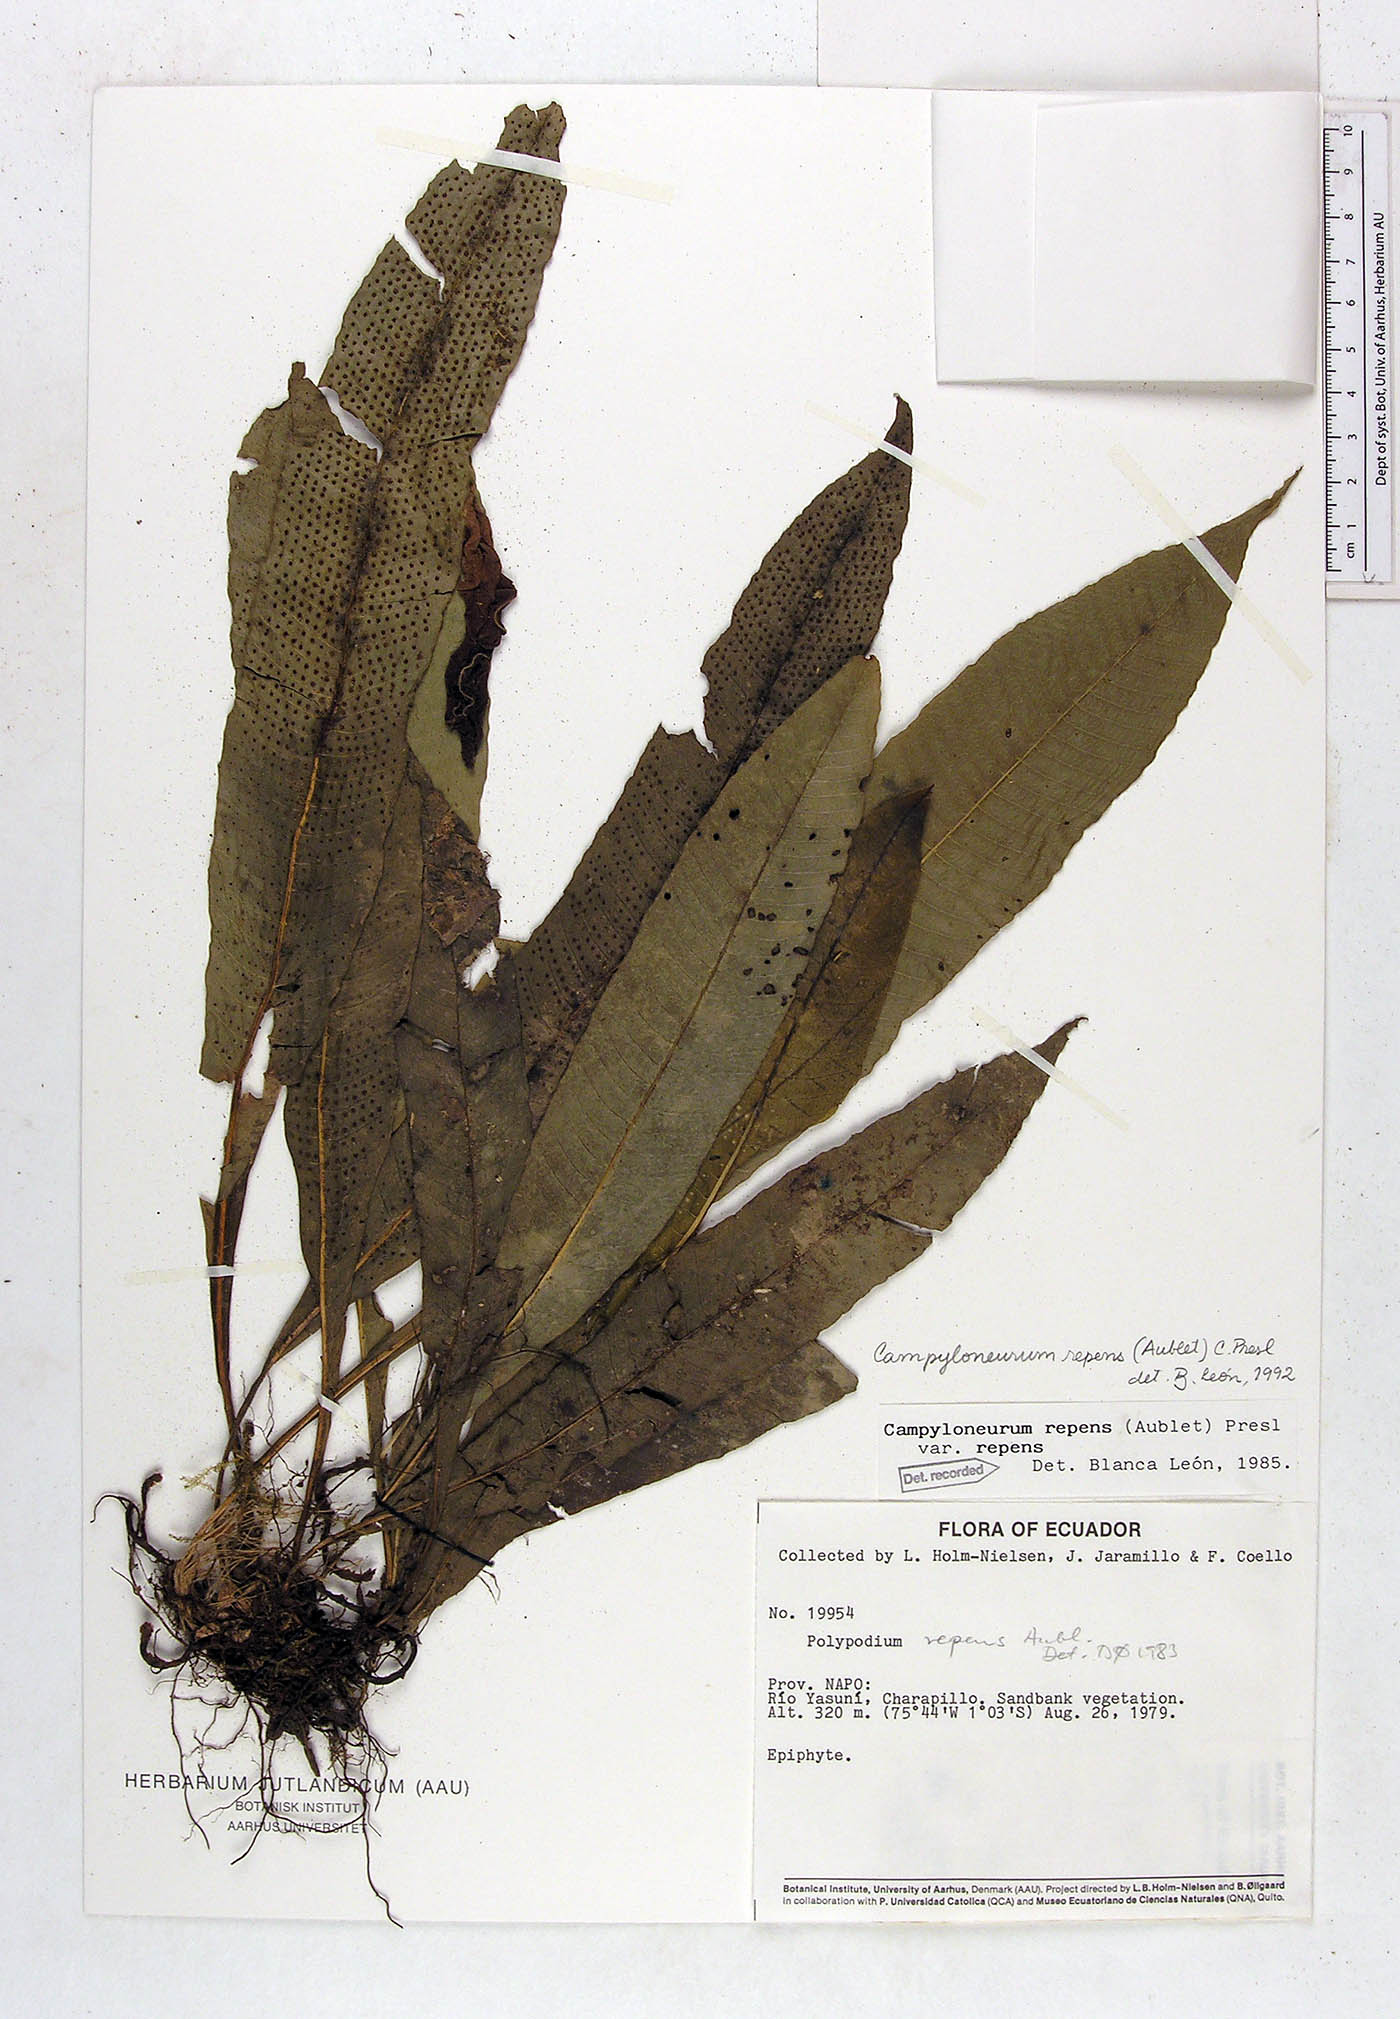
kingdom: Plantae
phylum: Tracheophyta
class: Polypodiopsida
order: Polypodiales
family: Polypodiaceae
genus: Campyloneurum
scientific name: Campyloneurum repens
